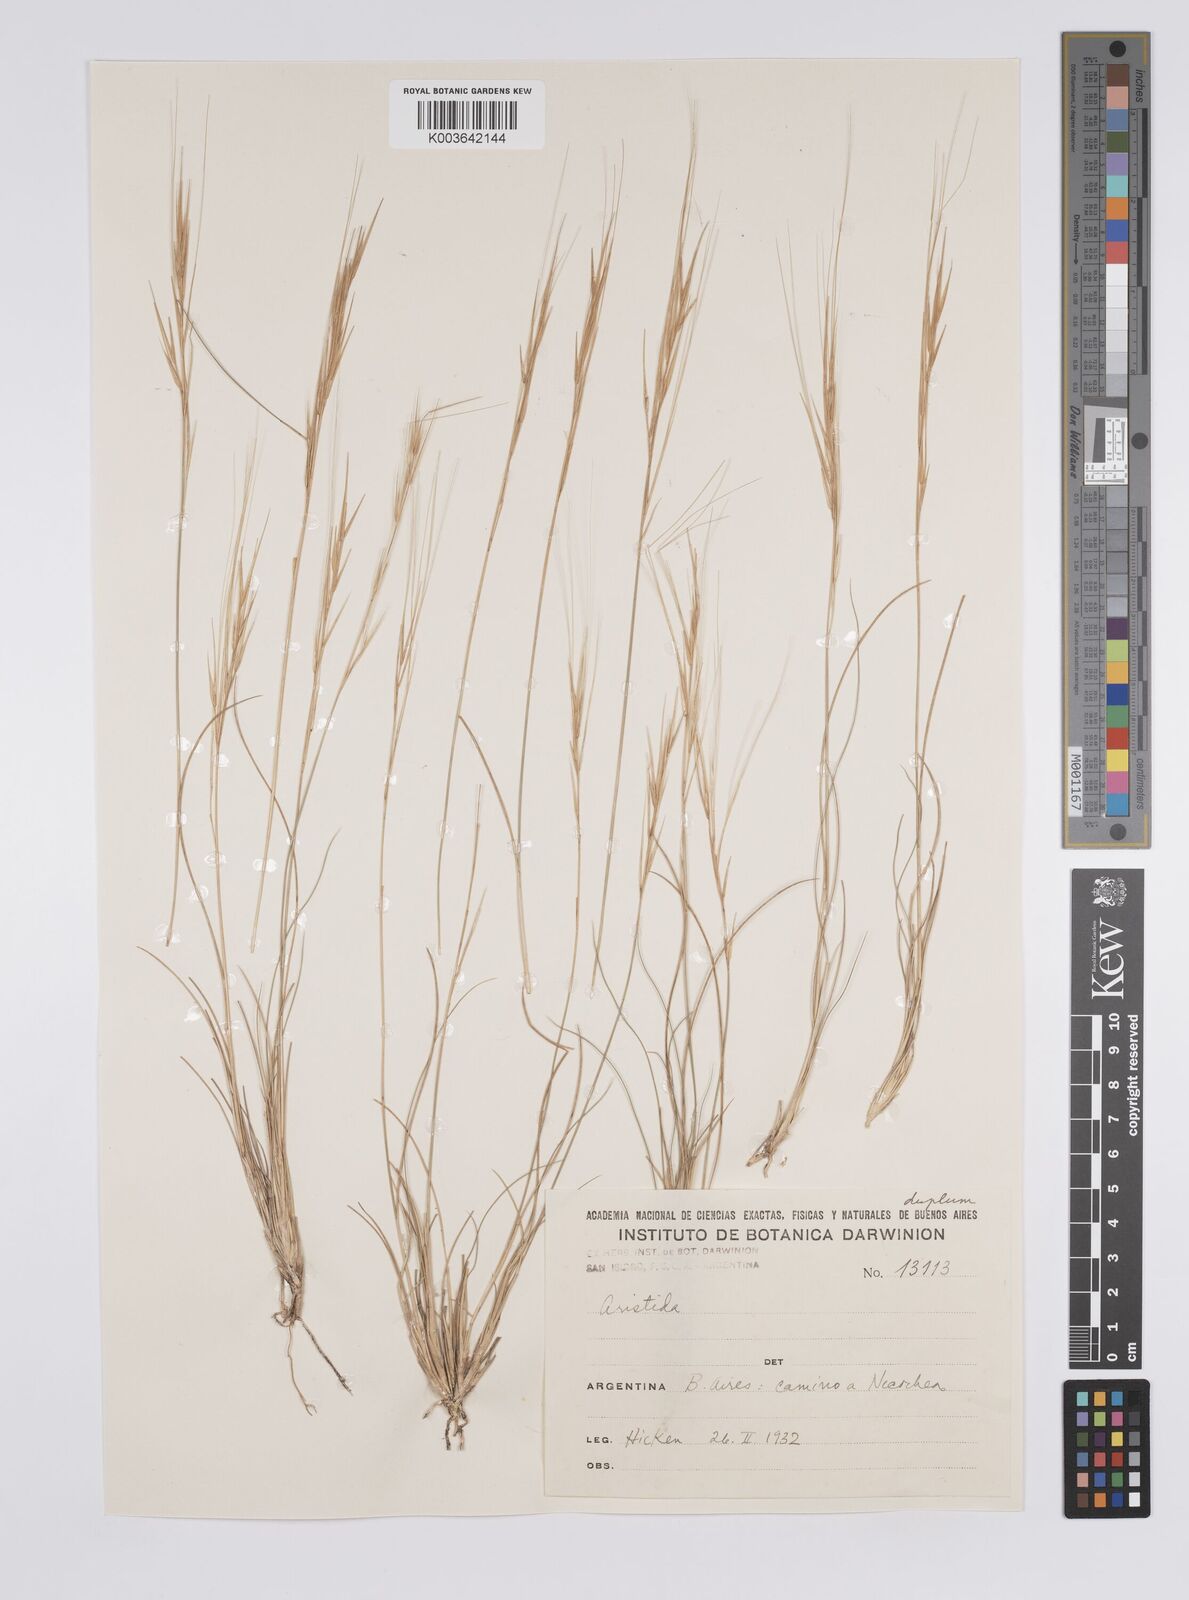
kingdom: Plantae
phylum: Tracheophyta
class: Liliopsida
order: Poales
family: Poaceae
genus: Aristida
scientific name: Aristida
